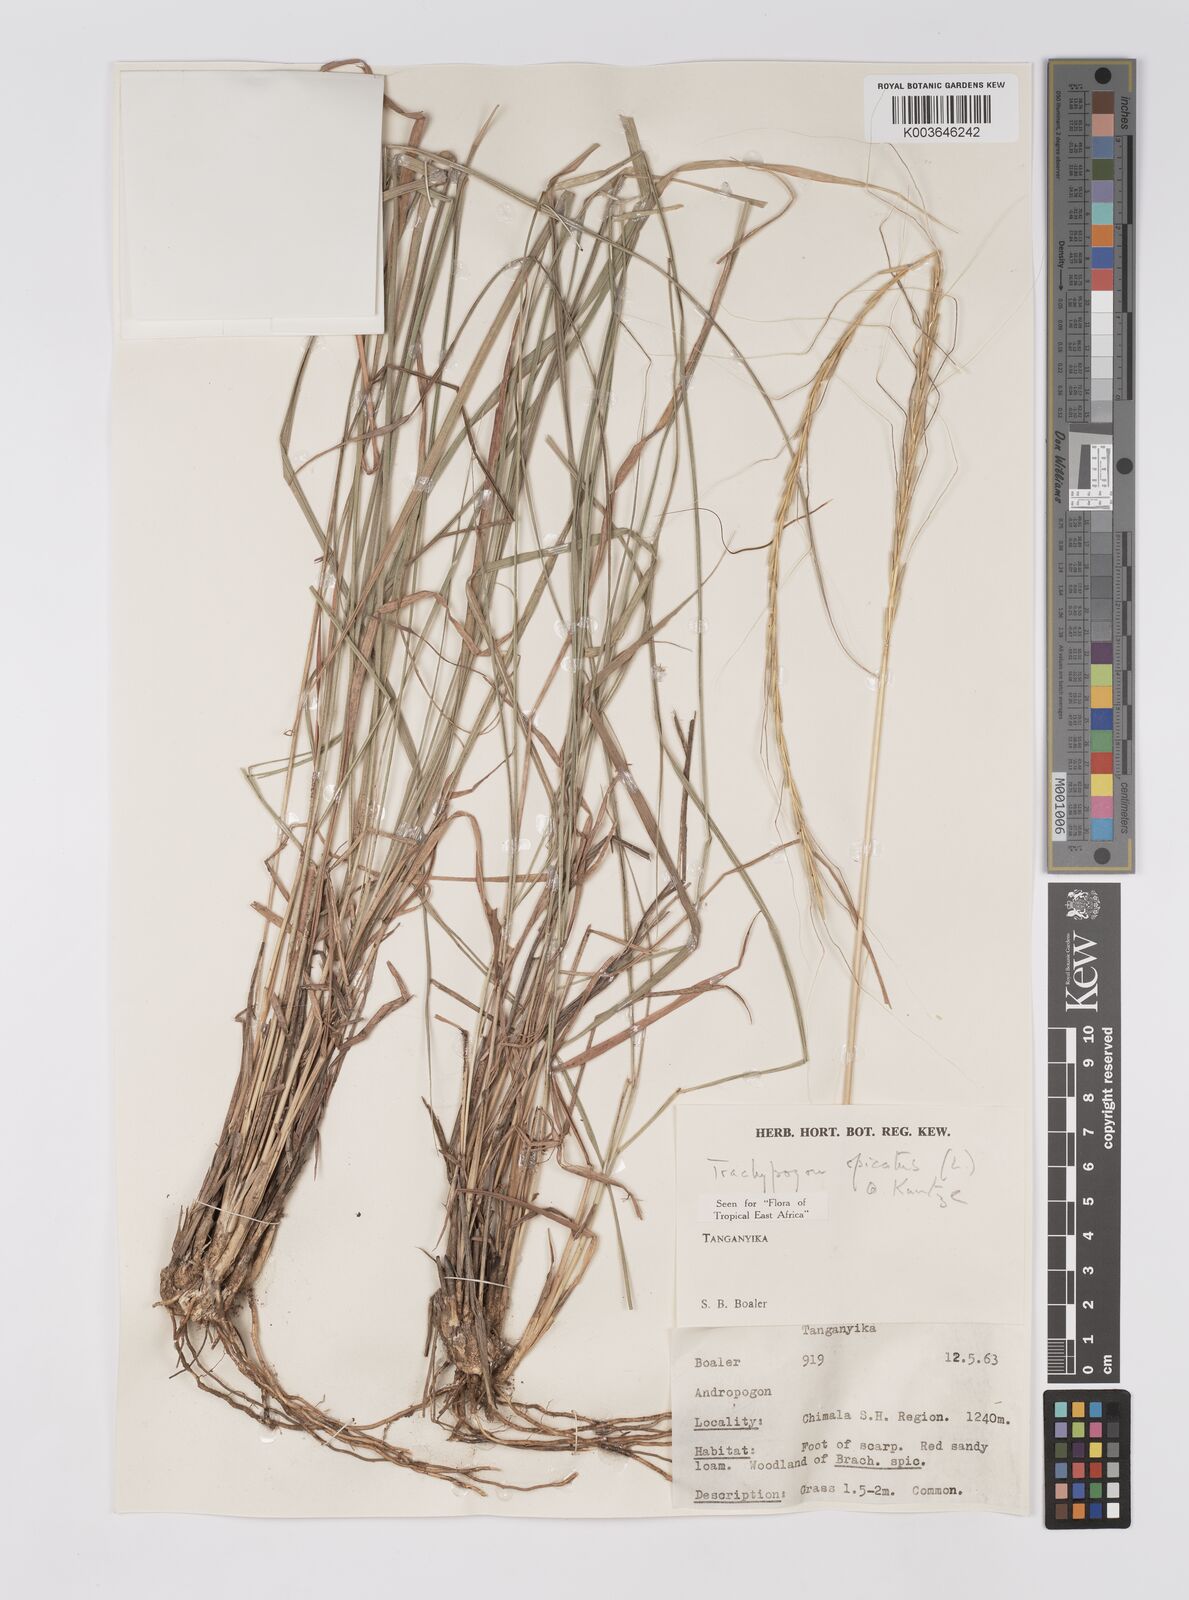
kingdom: Plantae
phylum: Tracheophyta
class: Liliopsida
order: Poales
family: Poaceae
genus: Trachypogon
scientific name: Trachypogon spicatus
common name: Crinkle-awn
